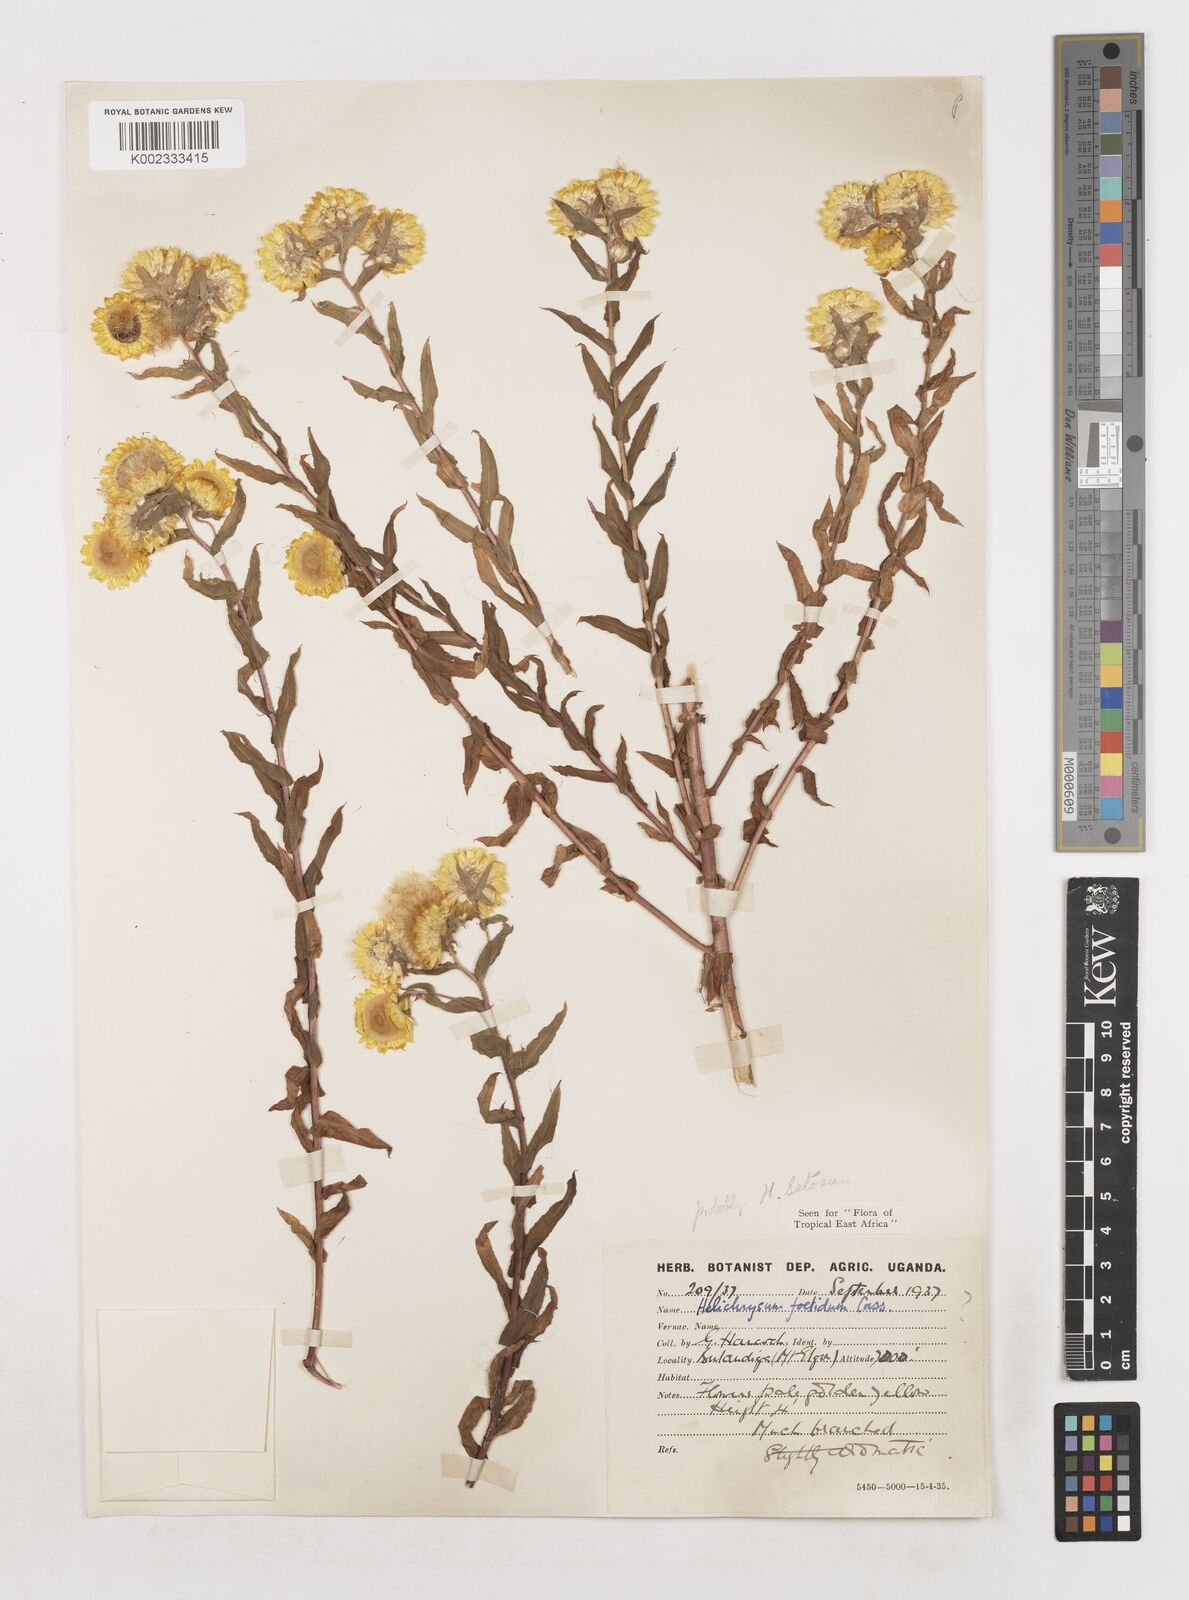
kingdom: Plantae
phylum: Tracheophyta
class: Magnoliopsida
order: Asterales
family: Asteraceae
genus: Helichrysum
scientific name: Helichrysum setosum
